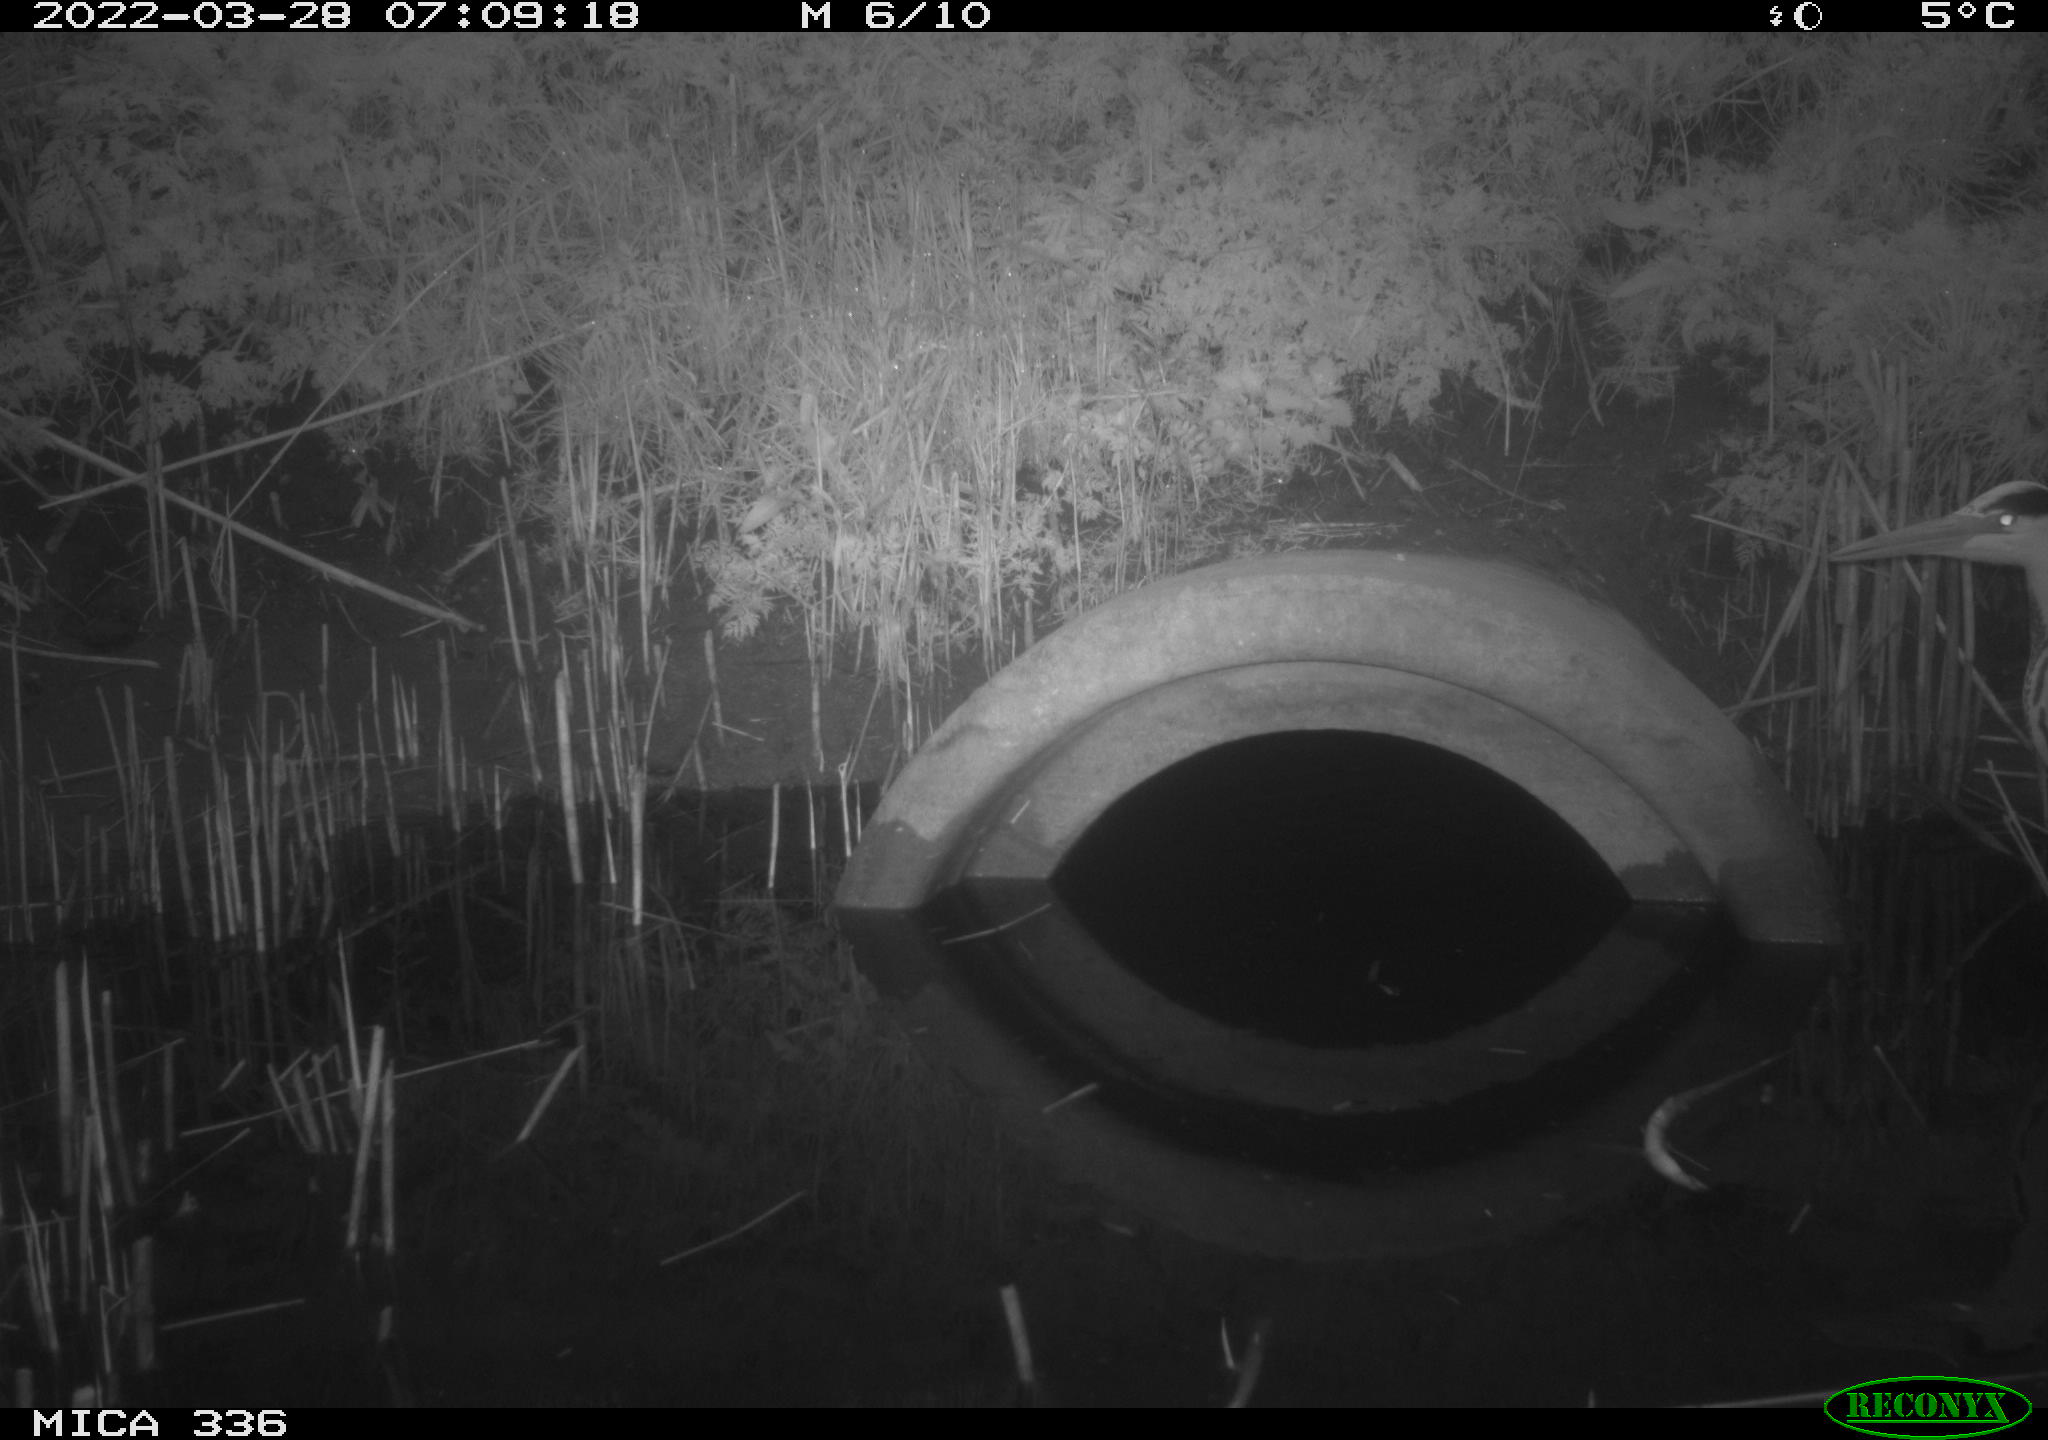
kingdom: Animalia
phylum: Chordata
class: Aves
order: Pelecaniformes
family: Ardeidae
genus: Ardea
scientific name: Ardea cinerea
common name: Grey heron
